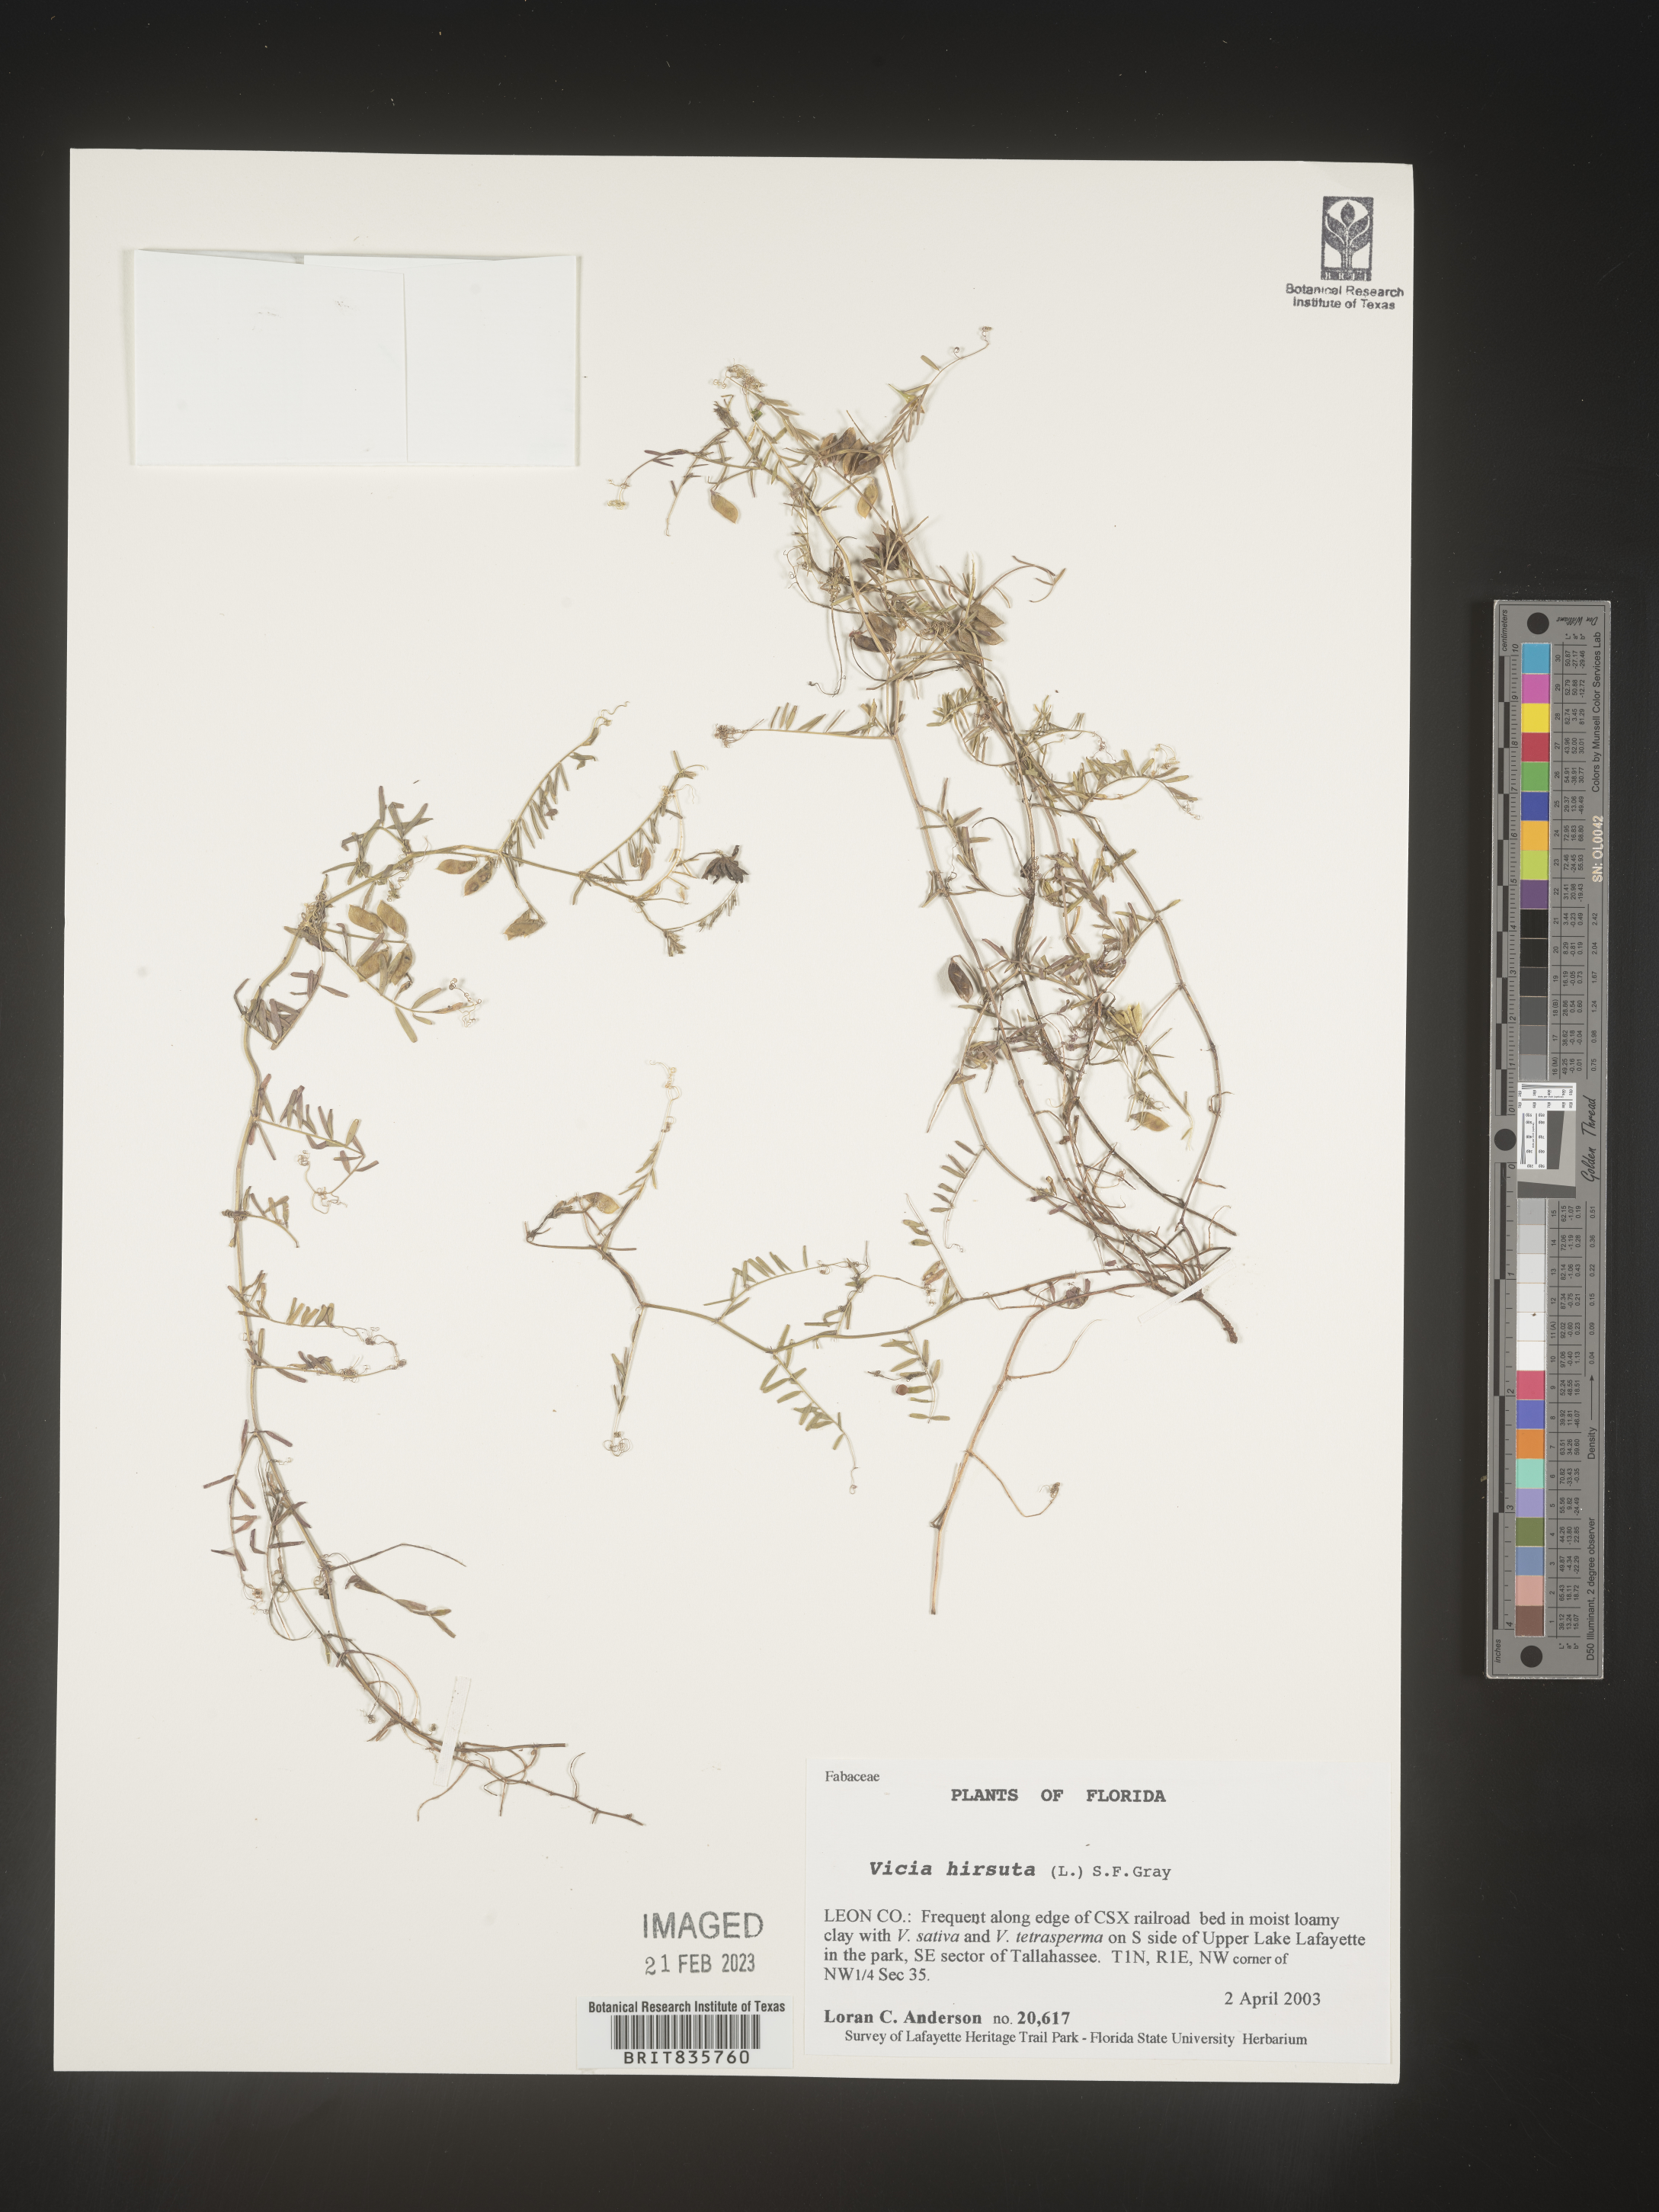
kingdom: Plantae
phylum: Tracheophyta
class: Magnoliopsida
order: Fabales
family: Fabaceae
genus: Vicia
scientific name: Vicia
